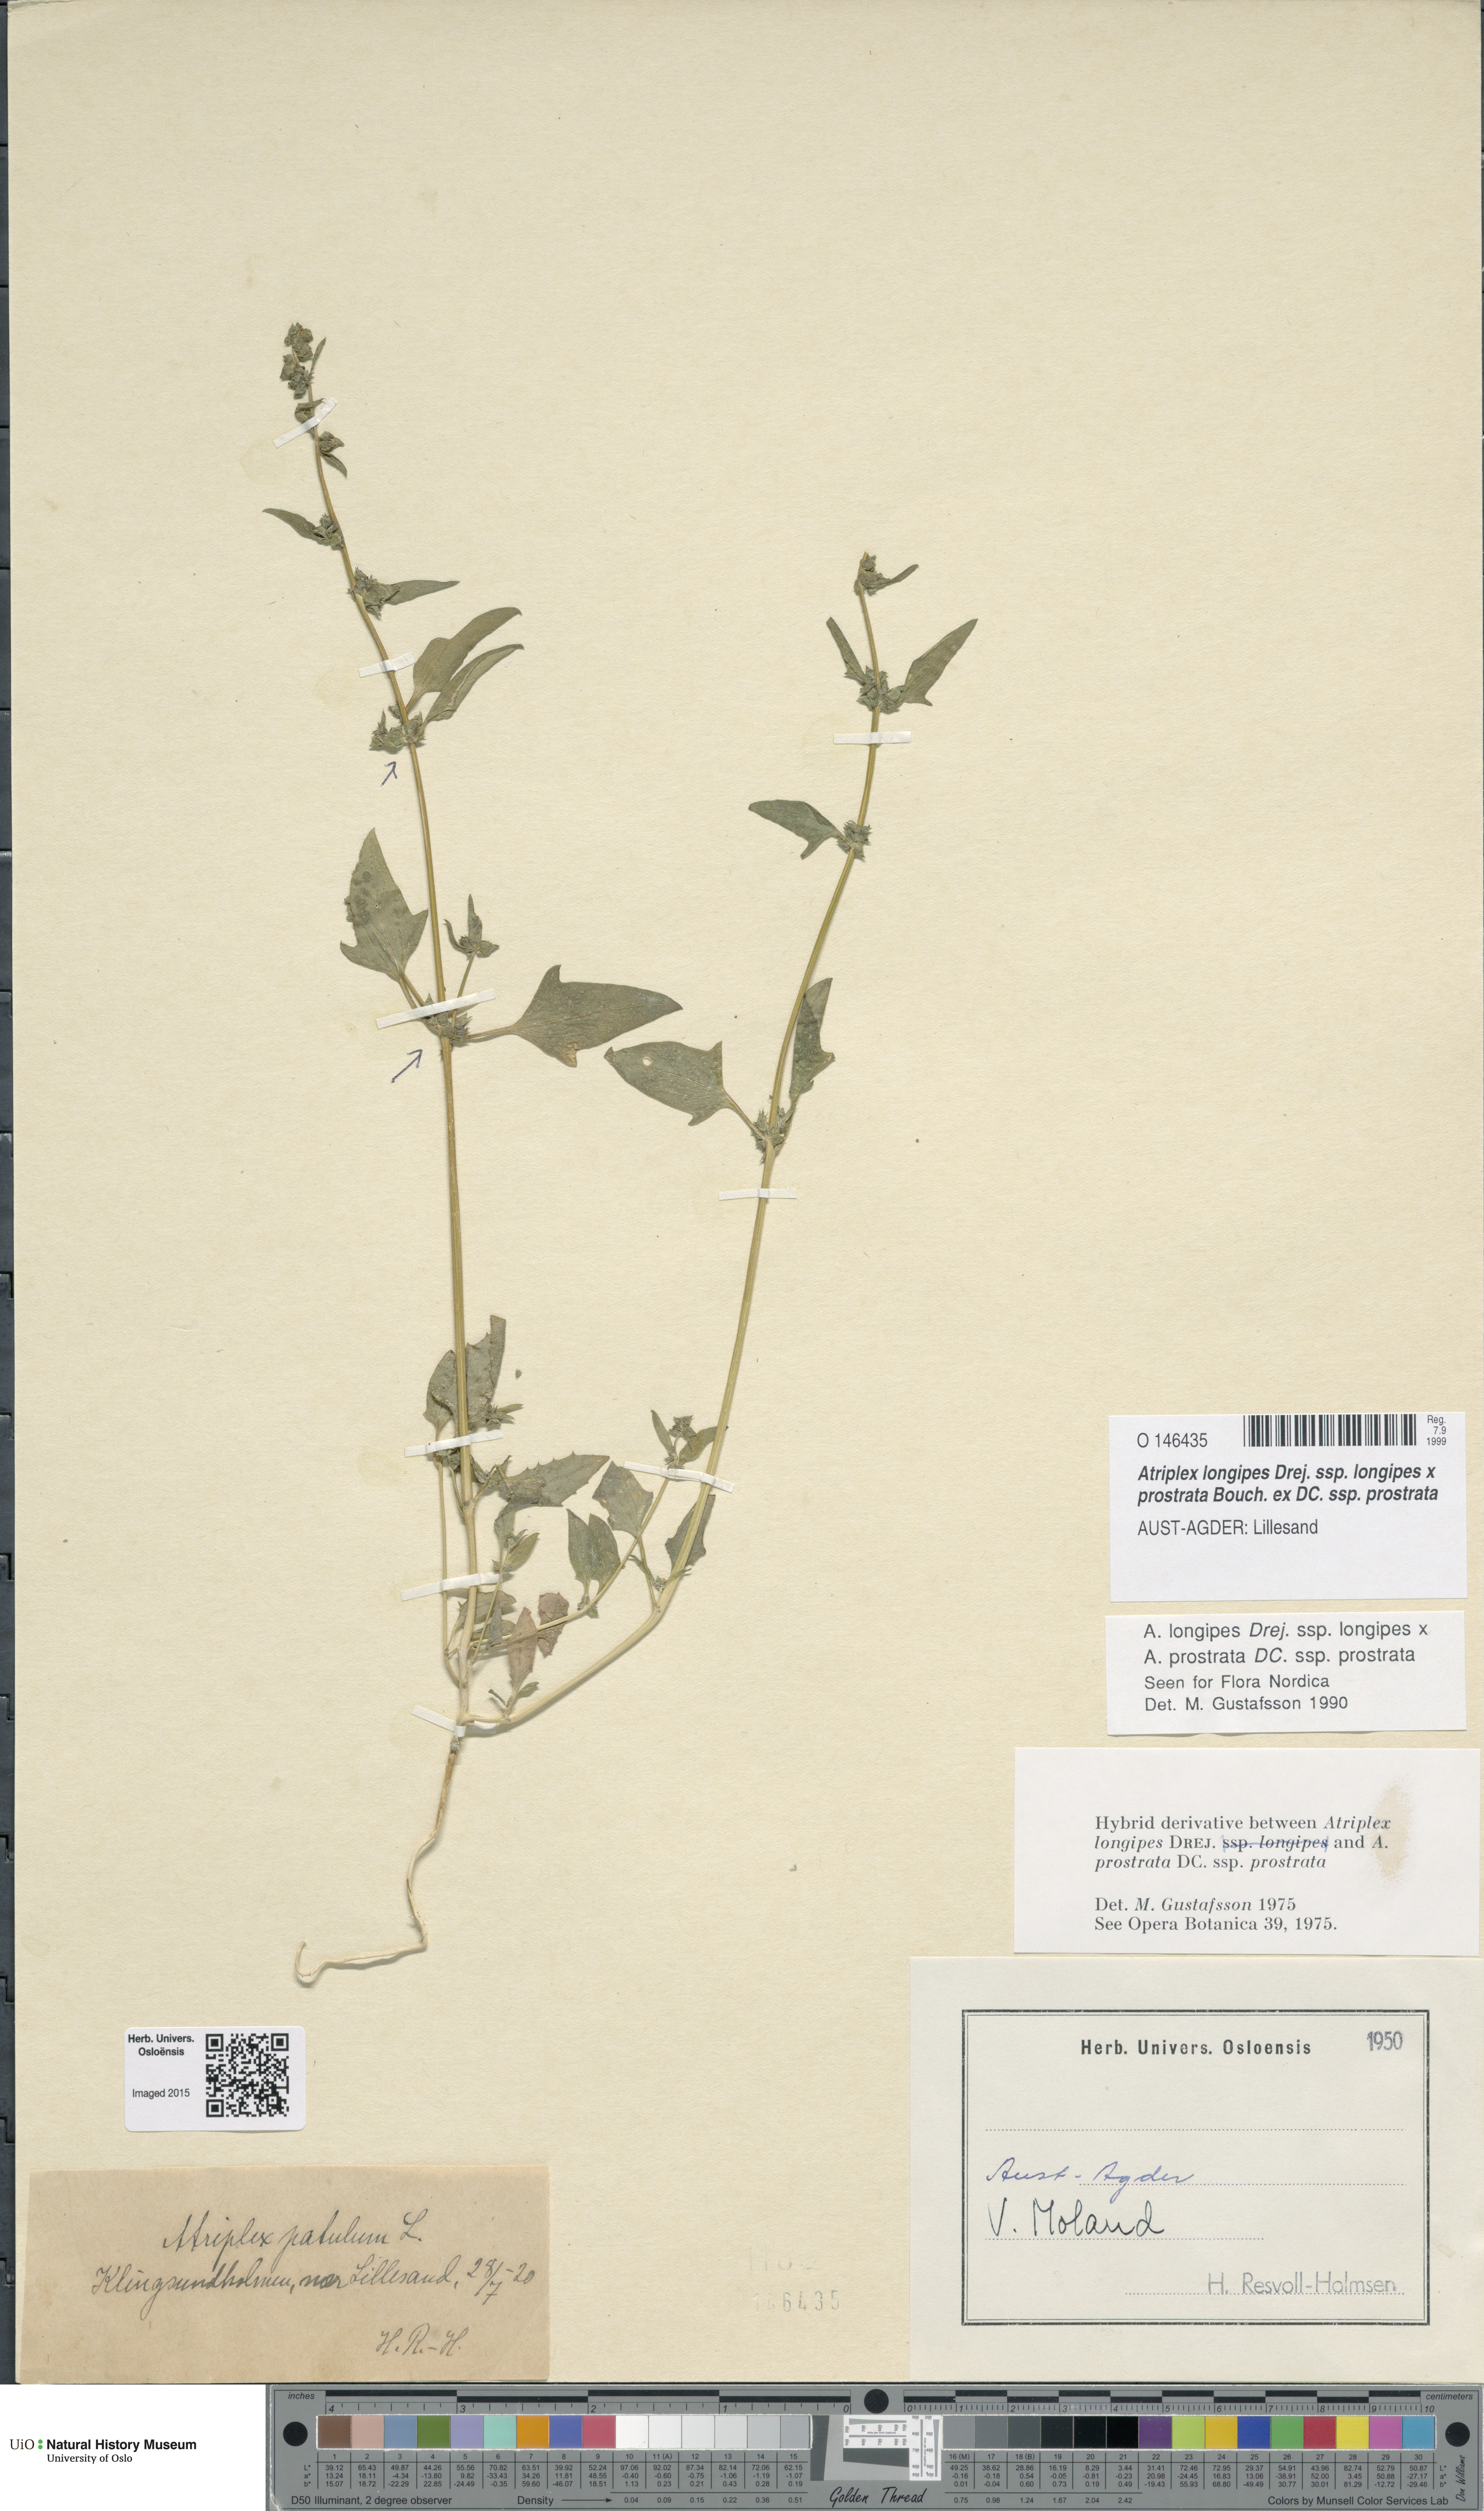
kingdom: Plantae
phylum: Tracheophyta
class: Magnoliopsida
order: Caryophyllales
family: Amaranthaceae
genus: Atriplex
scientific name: Atriplex
